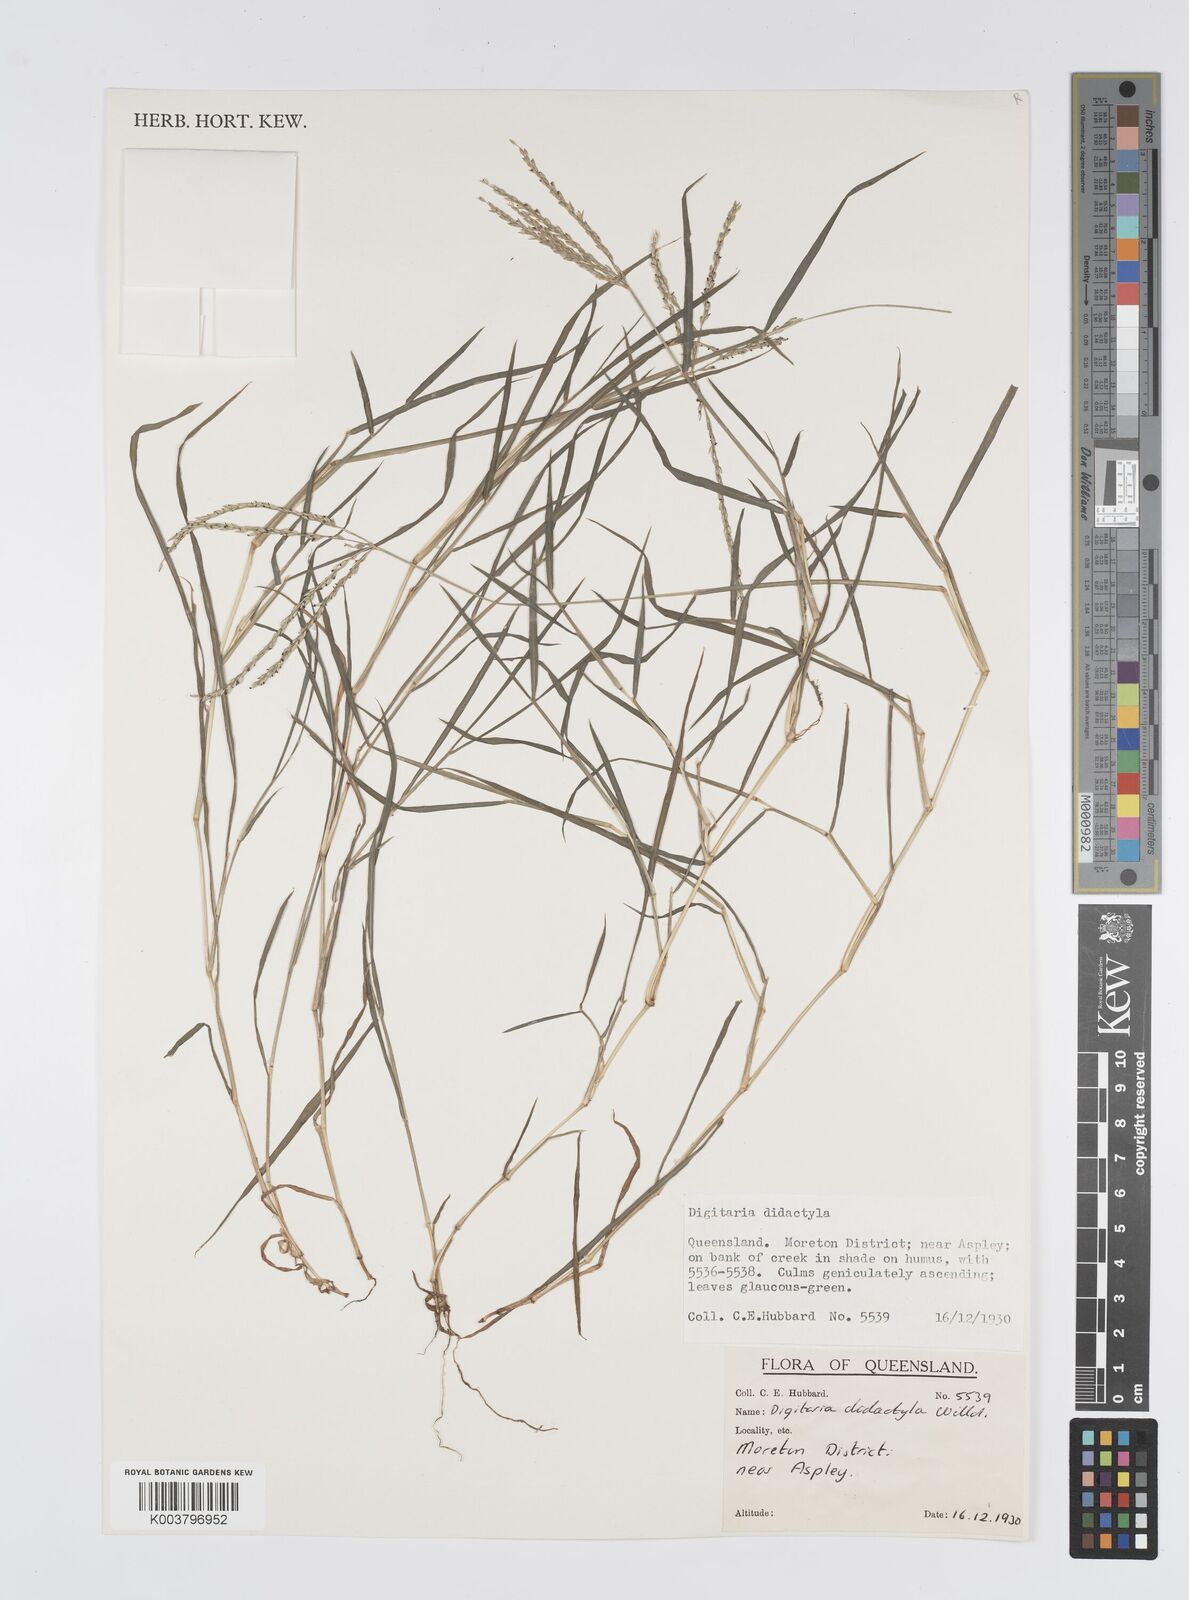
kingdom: Plantae
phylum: Tracheophyta
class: Liliopsida
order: Poales
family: Poaceae
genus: Digitaria
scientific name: Digitaria didactyla
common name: Blue couch
